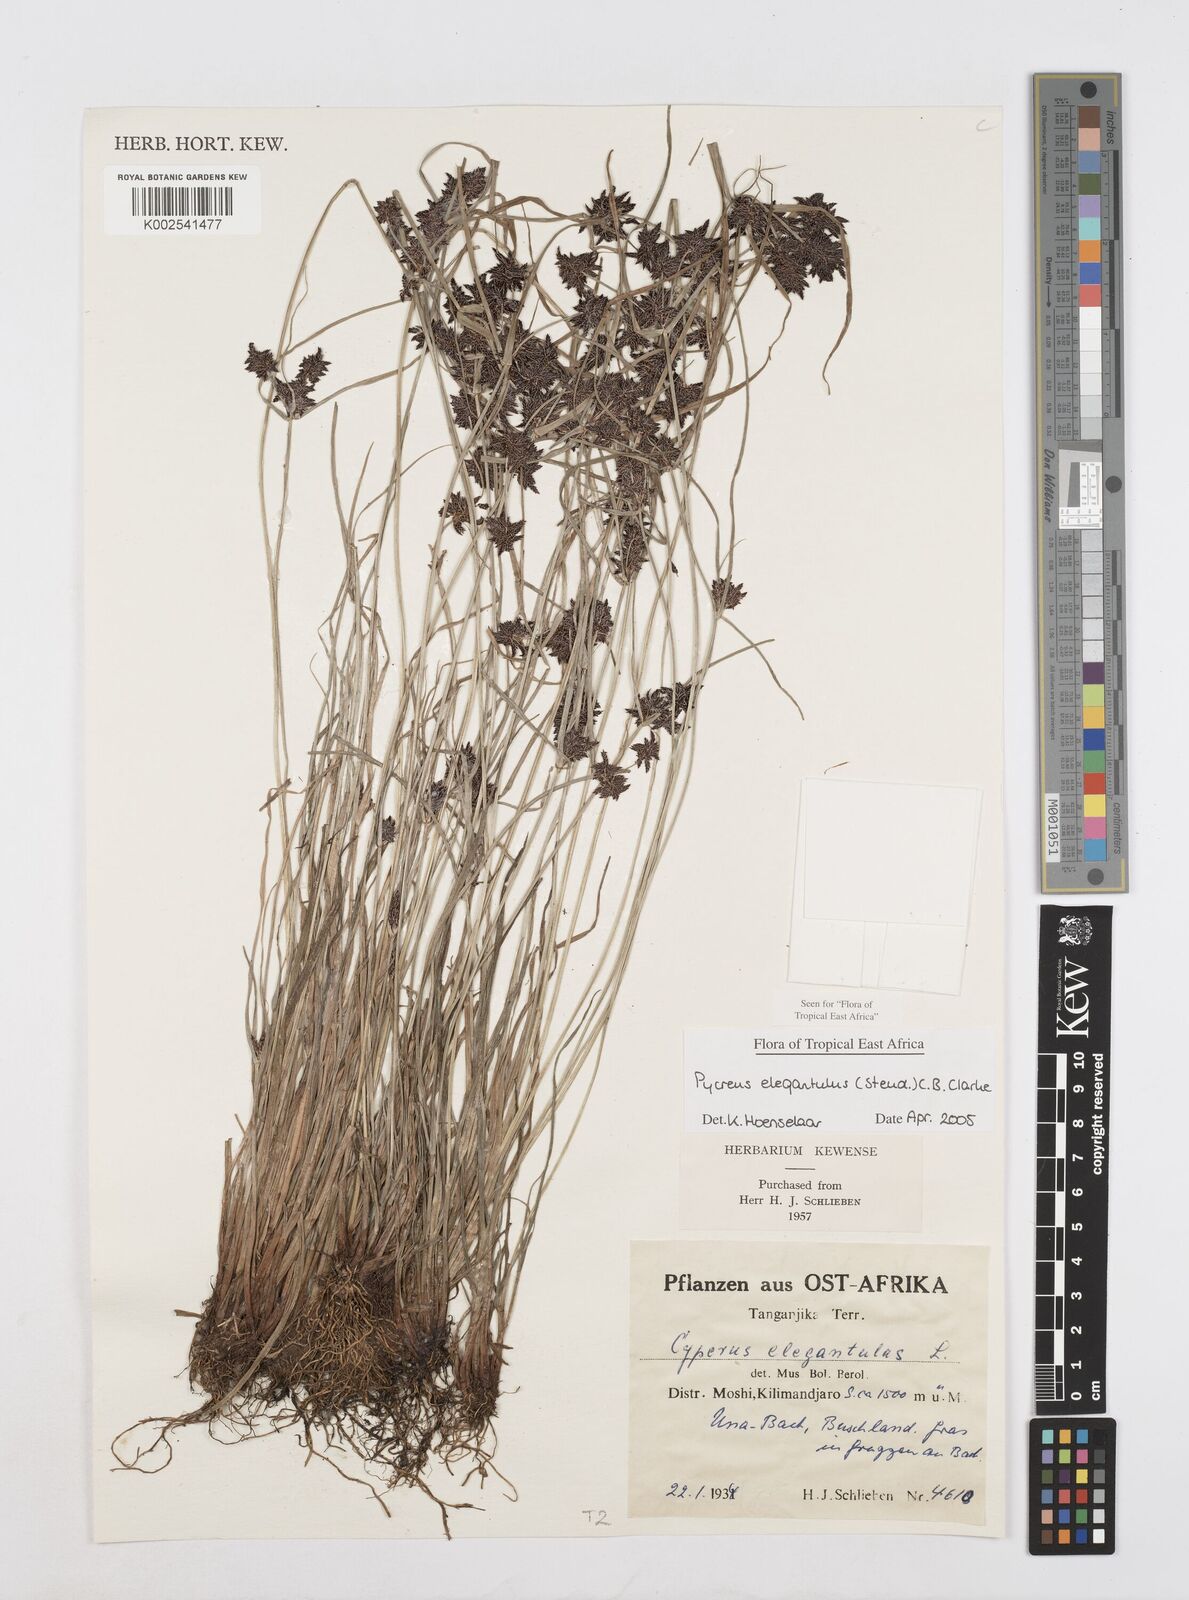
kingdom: Plantae
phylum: Tracheophyta
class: Liliopsida
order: Poales
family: Cyperaceae
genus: Cyperus
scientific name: Cyperus elegantulus
